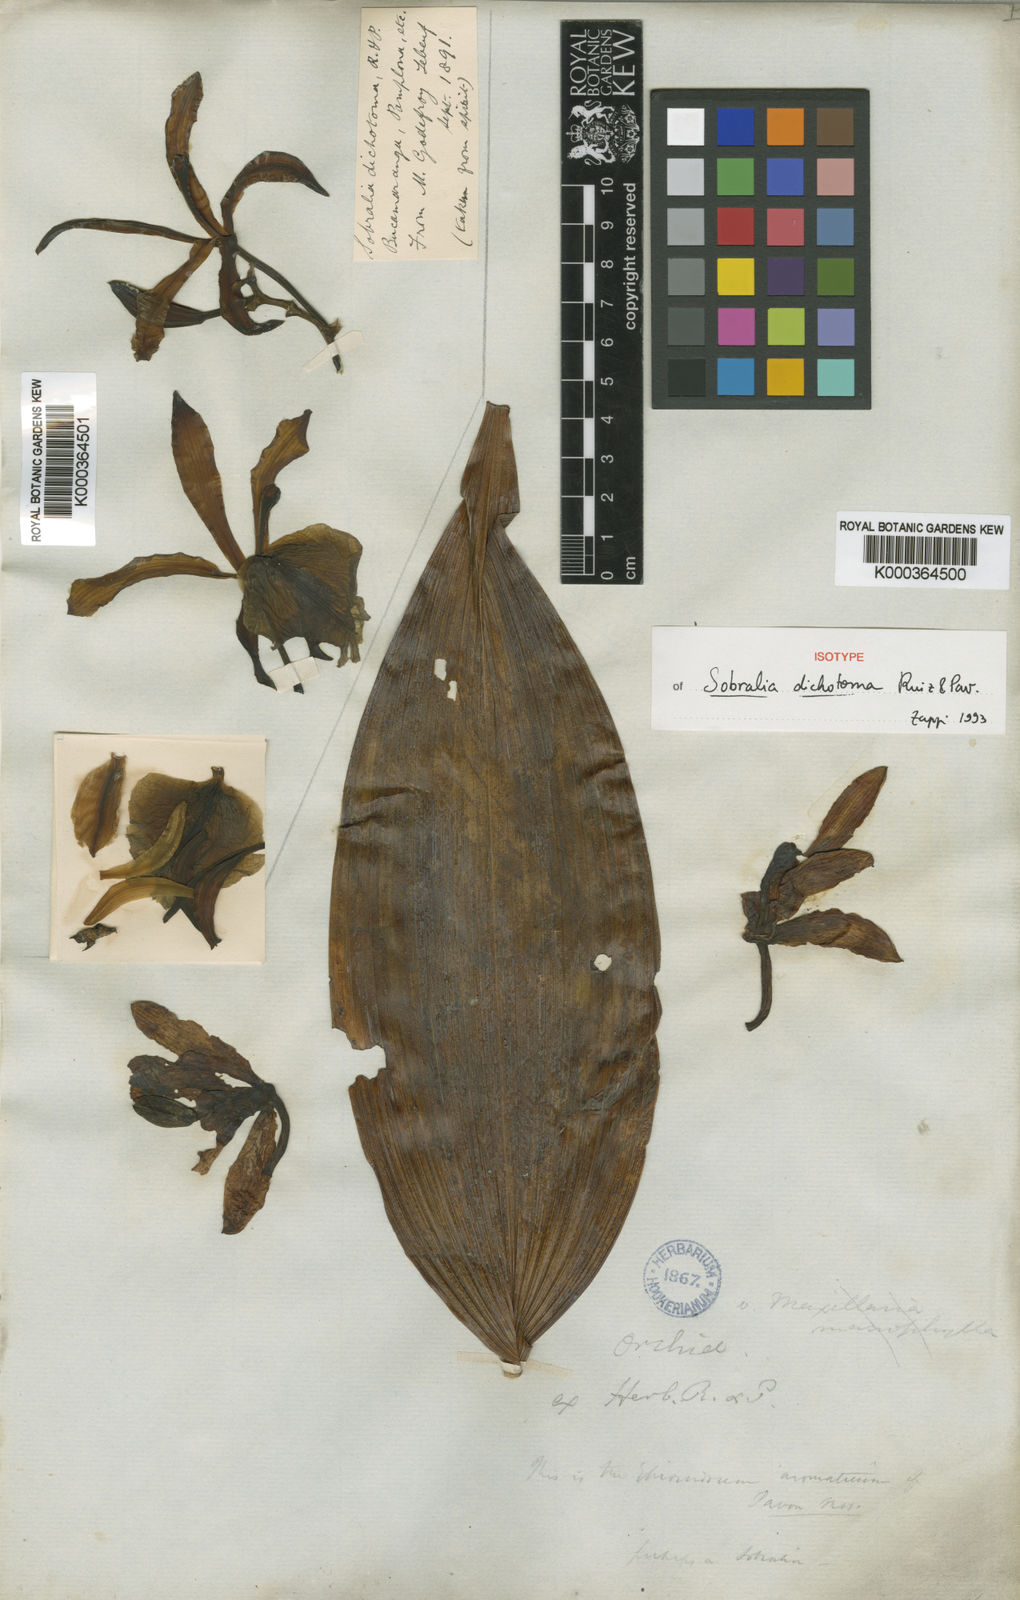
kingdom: Plantae
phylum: Tracheophyta
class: Liliopsida
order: Asparagales
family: Orchidaceae
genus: Sobralia
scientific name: Sobralia dichotoma
